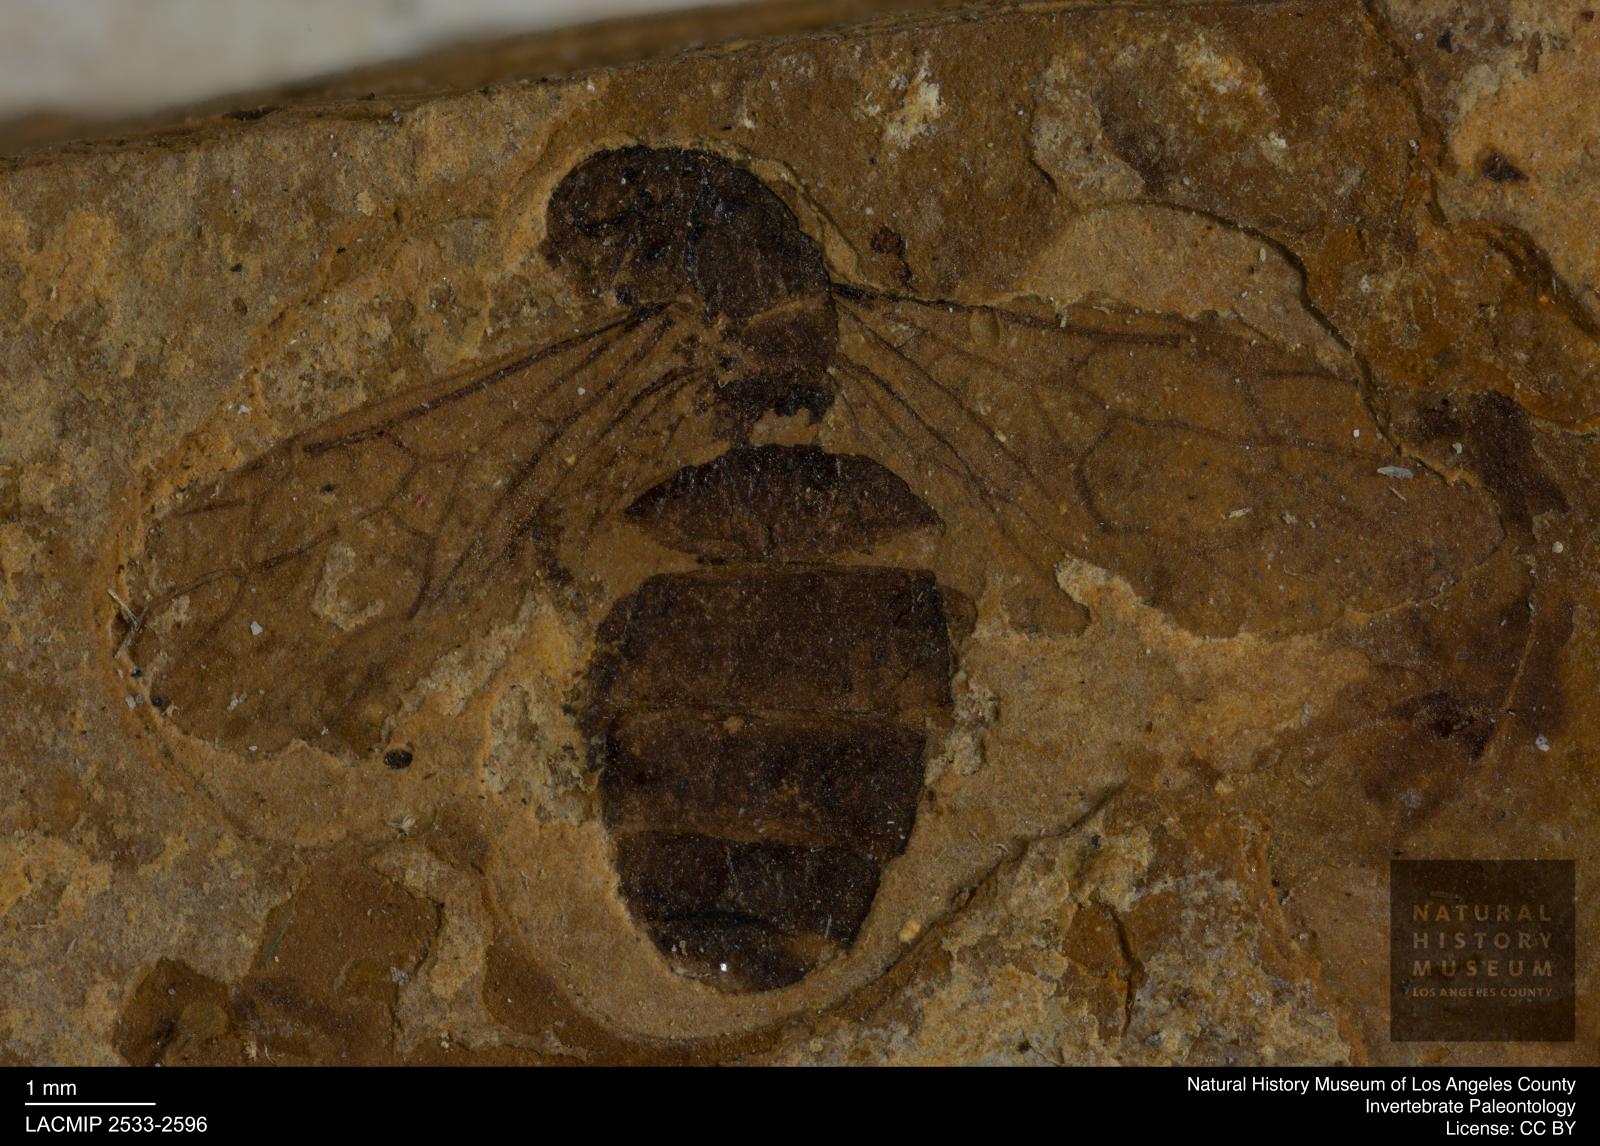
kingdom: Animalia
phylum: Arthropoda
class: Insecta
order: Hymenoptera
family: Formicidae
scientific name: Formicidae
